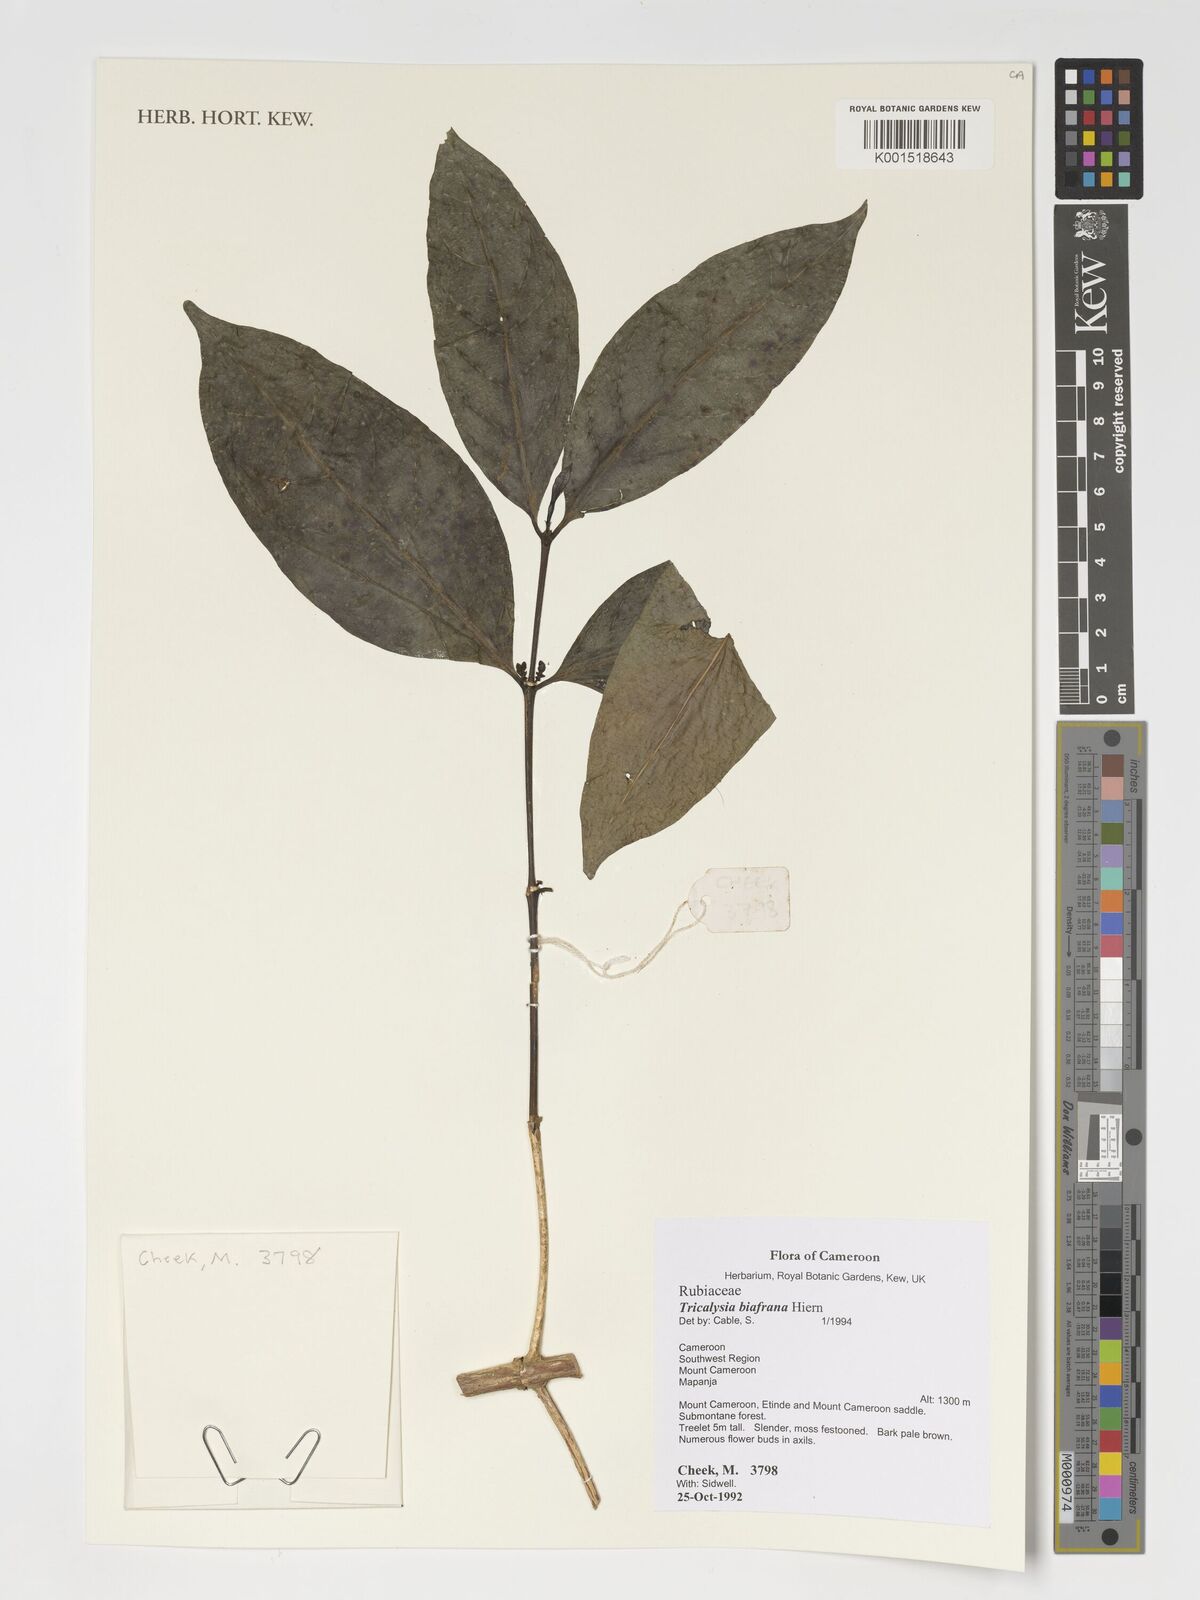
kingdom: Plantae
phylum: Tracheophyta
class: Magnoliopsida
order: Gentianales
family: Rubiaceae
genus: Tricalysia
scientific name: Tricalysia biafrana
